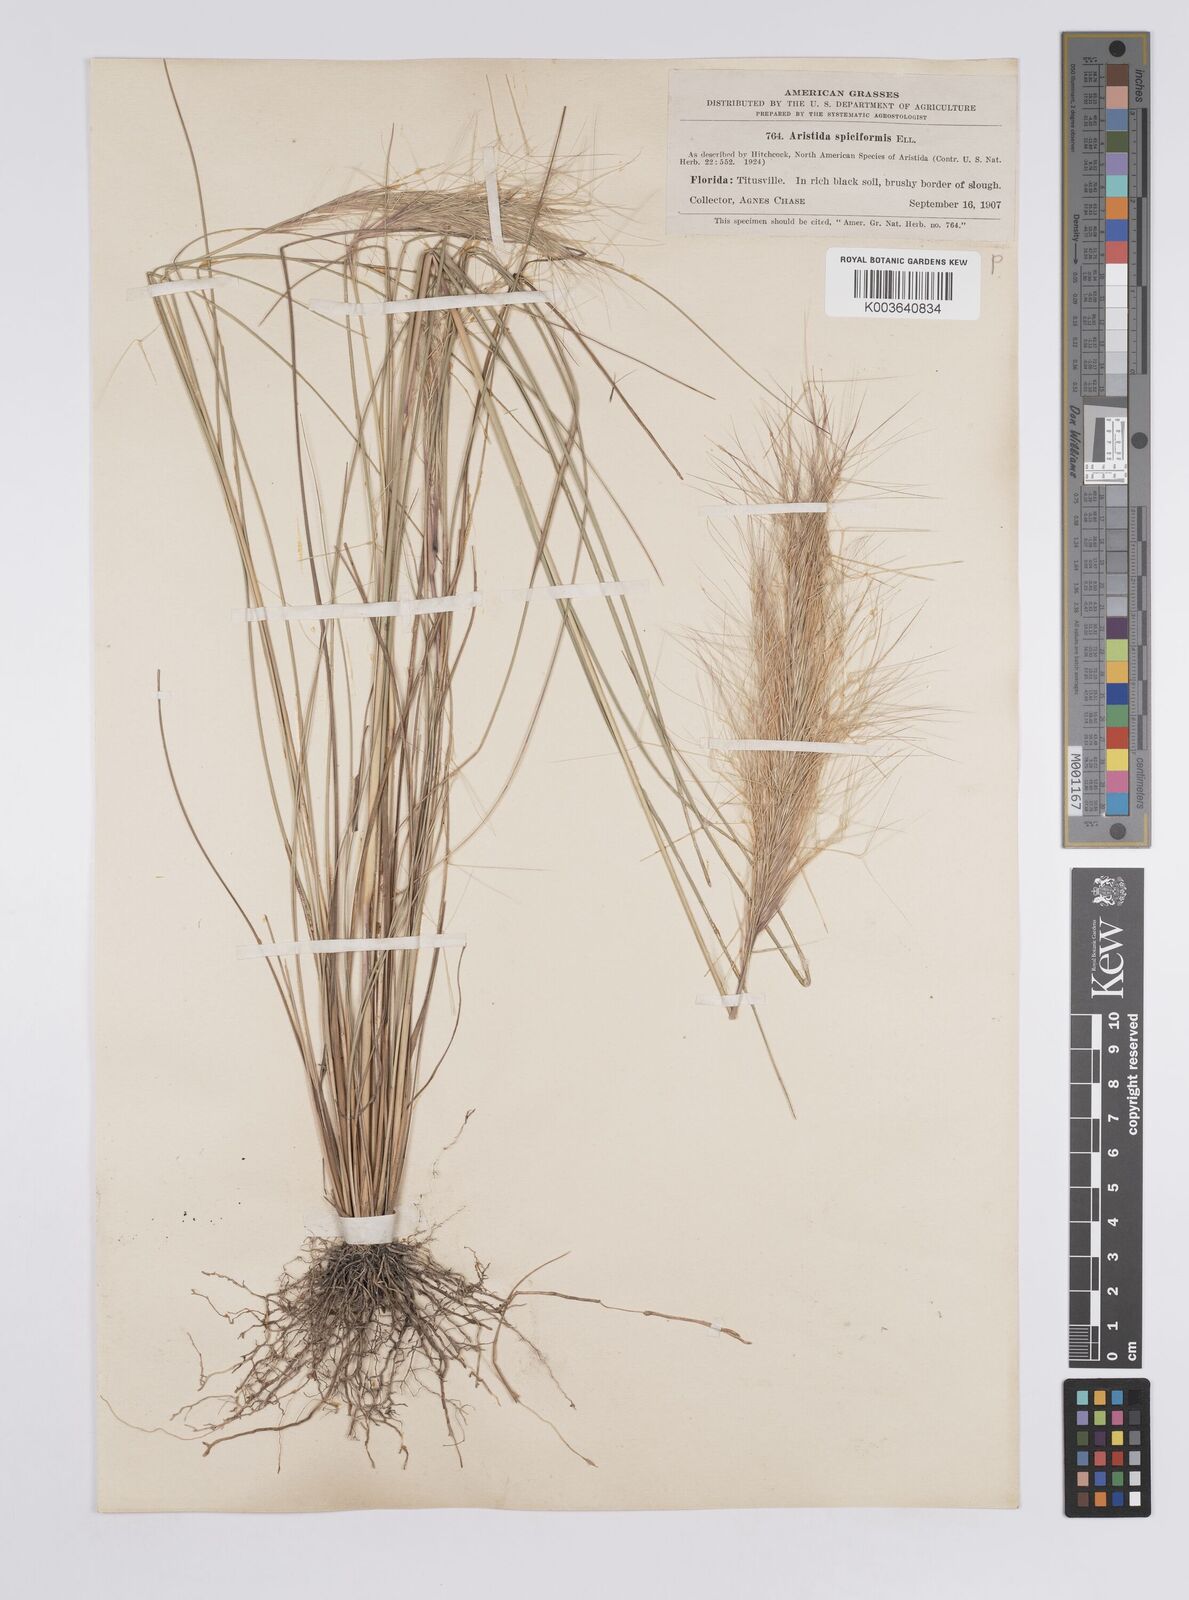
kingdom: Plantae
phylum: Tracheophyta
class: Liliopsida
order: Poales
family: Poaceae
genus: Aristida
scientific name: Aristida spiciformis
